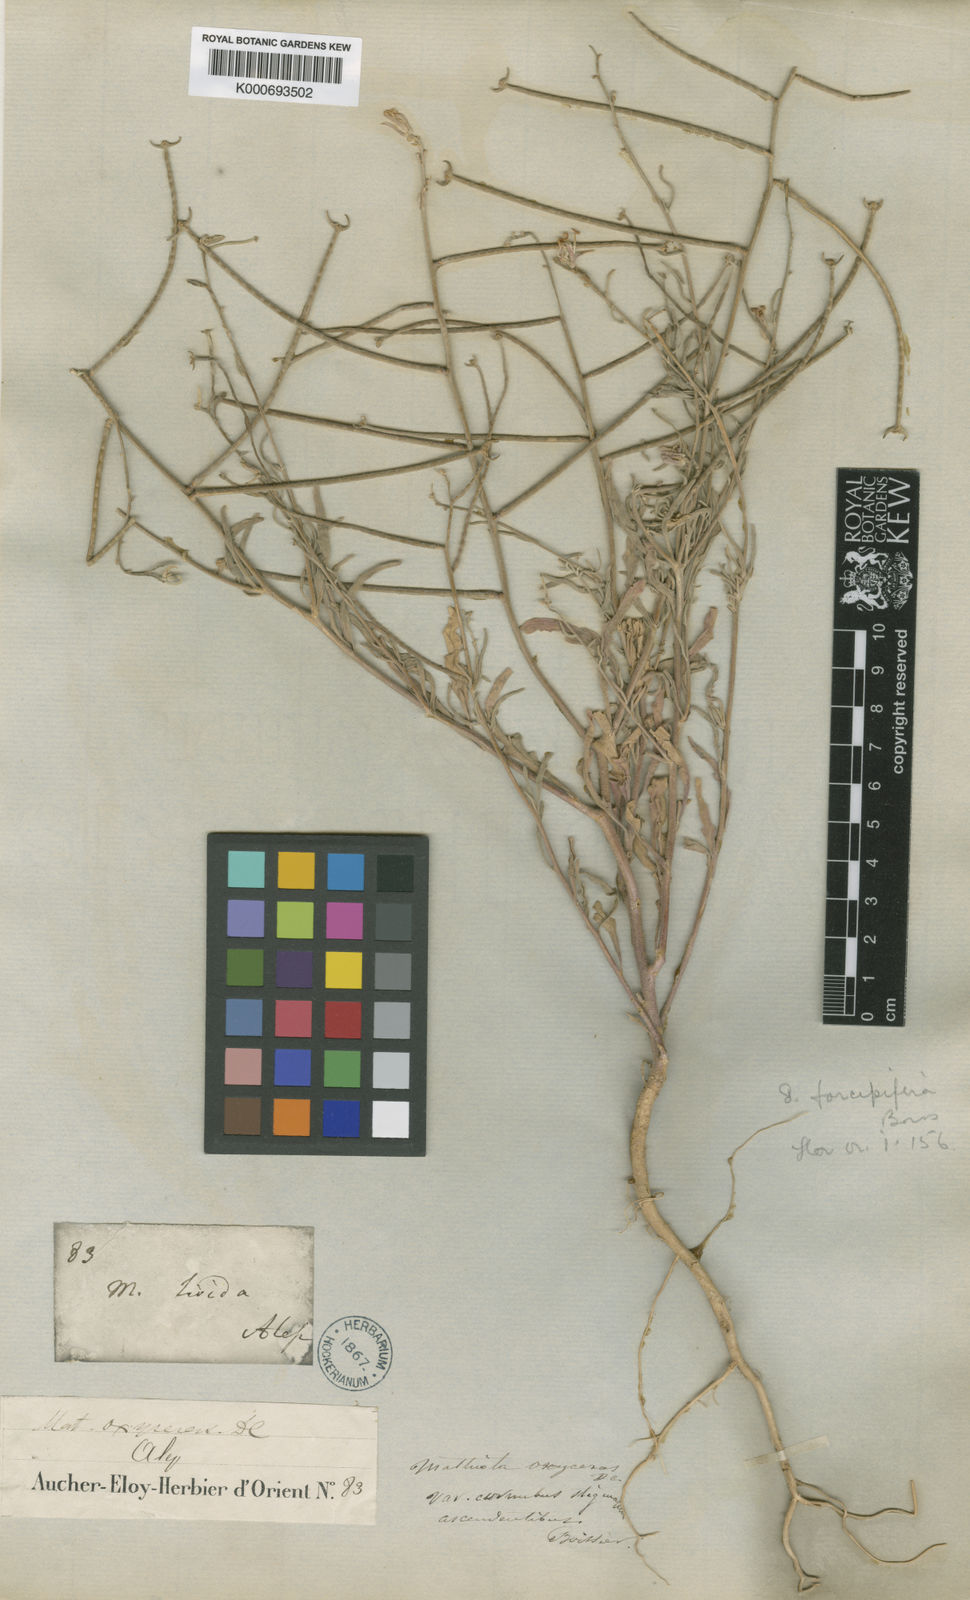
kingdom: Plantae
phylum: Tracheophyta
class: Magnoliopsida
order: Brassicales
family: Brassicaceae
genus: Matthiola
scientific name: Matthiola longipetala
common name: Night-scented stock
